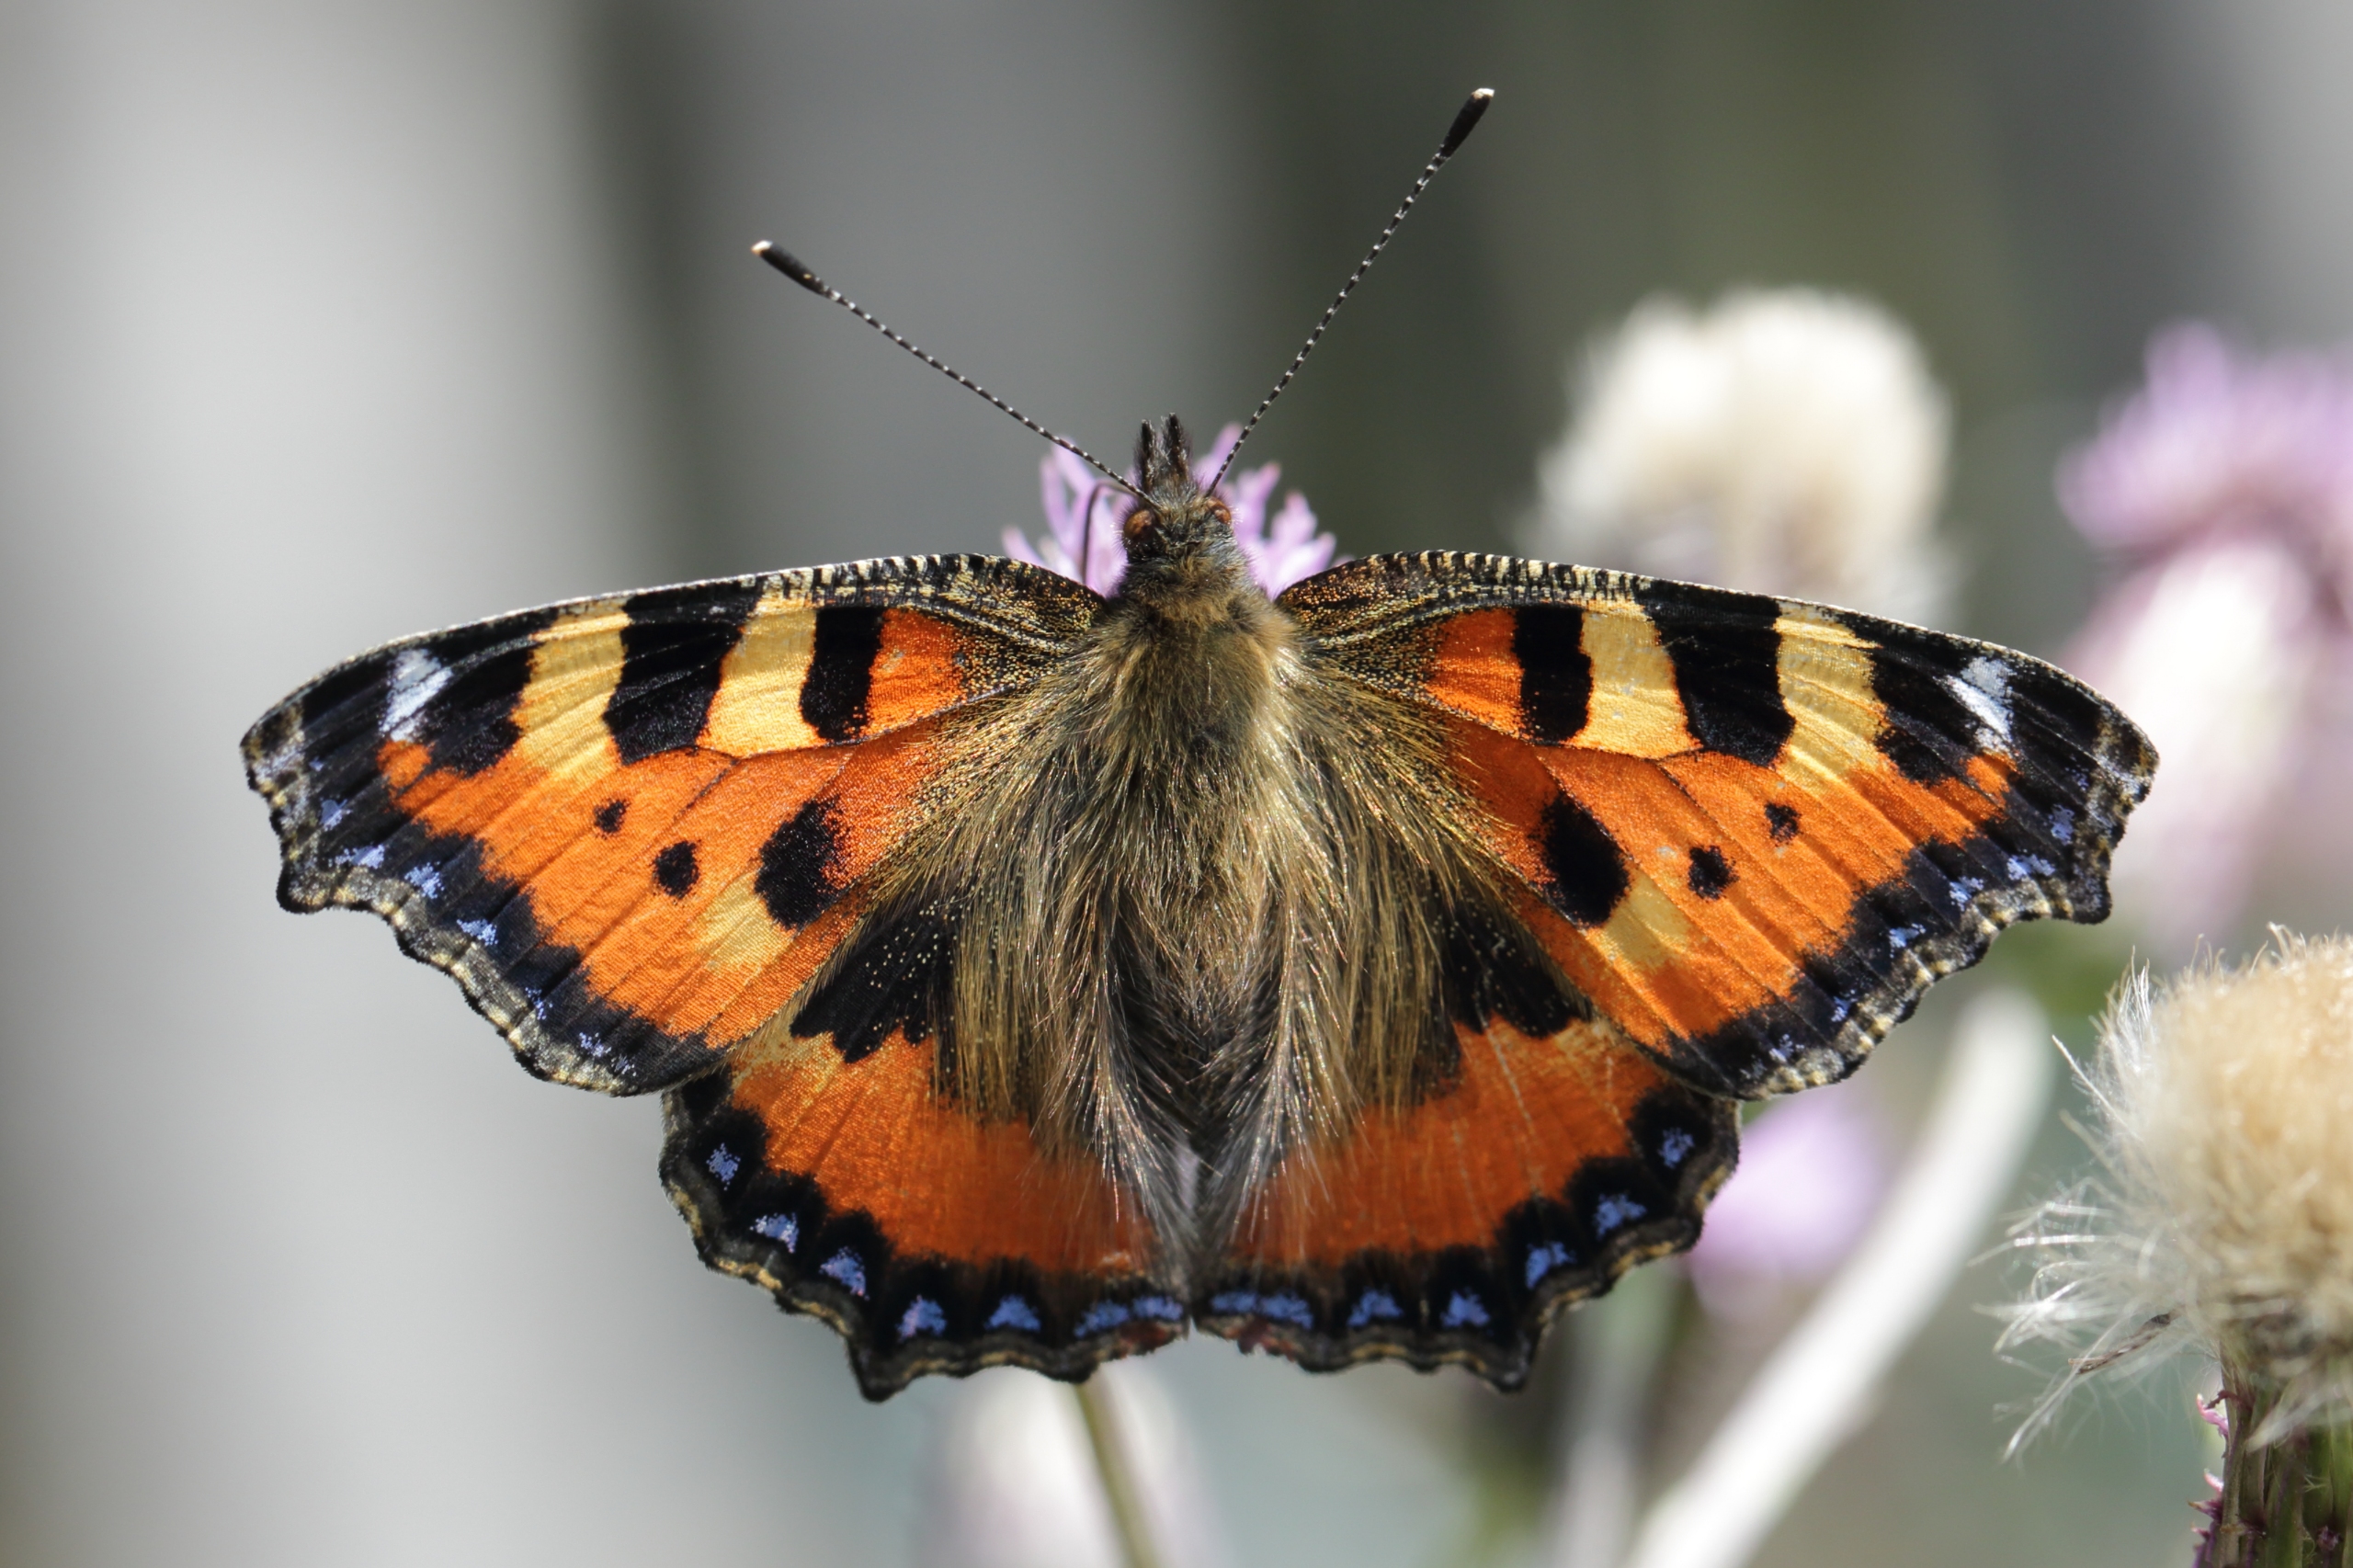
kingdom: Animalia
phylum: Arthropoda
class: Insecta
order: Lepidoptera
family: Nymphalidae
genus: Aglais
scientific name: Aglais urticae
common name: Nældens takvinge
